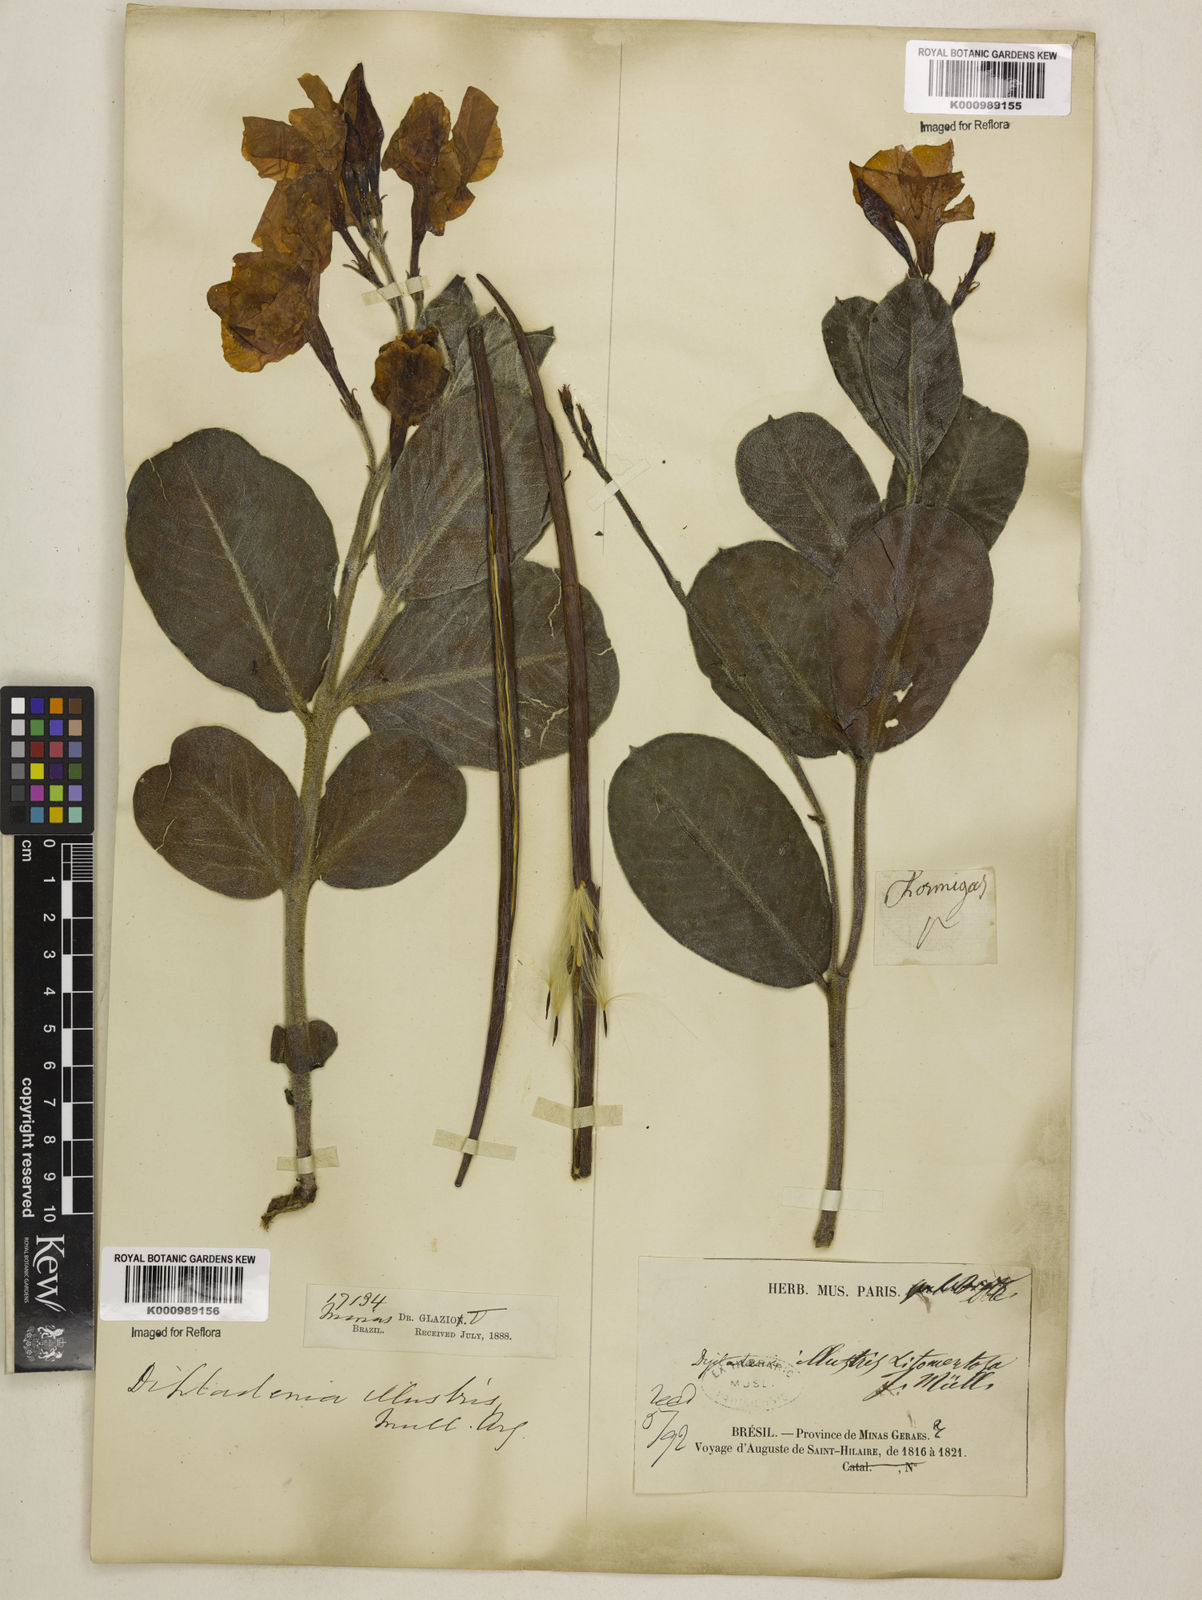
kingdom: Plantae
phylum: Tracheophyta
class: Magnoliopsida
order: Gentianales
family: Apocynaceae
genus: Mandevilla
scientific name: Mandevilla illustris
